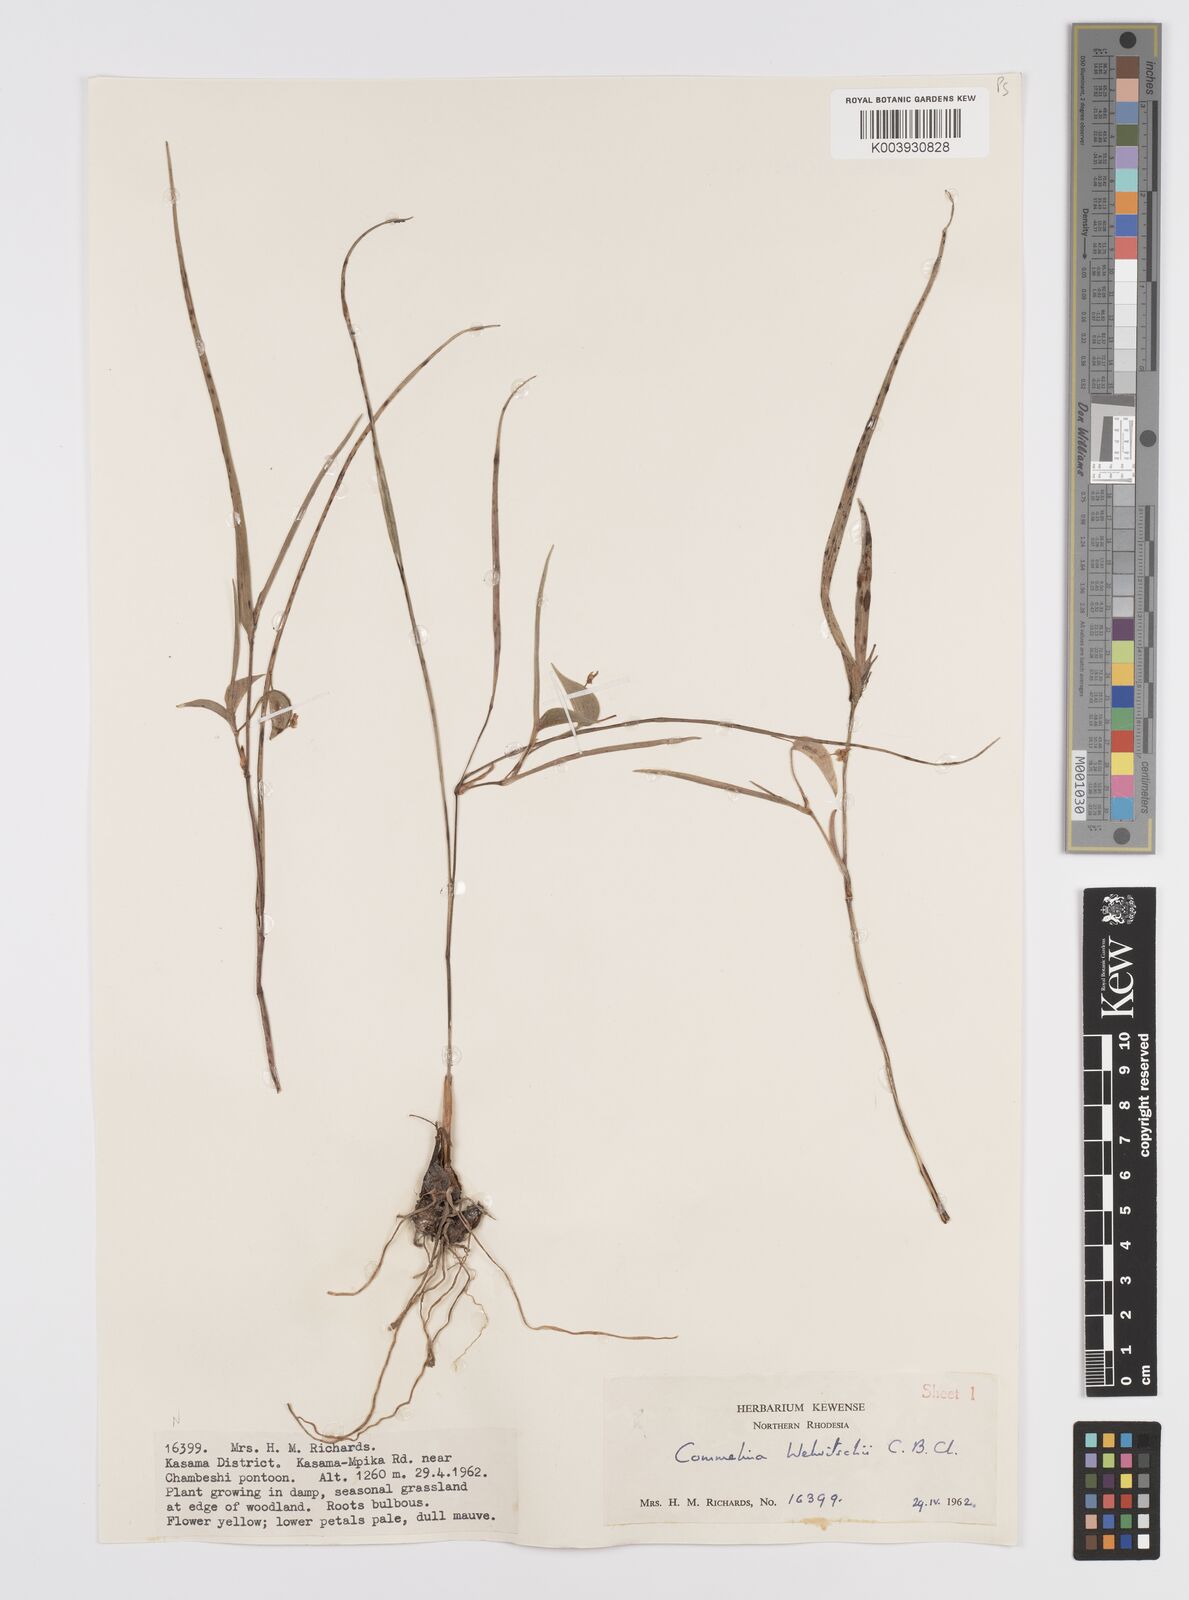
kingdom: Plantae
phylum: Tracheophyta
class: Liliopsida
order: Commelinales
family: Commelinaceae
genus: Commelina
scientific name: Commelina welwitschii
